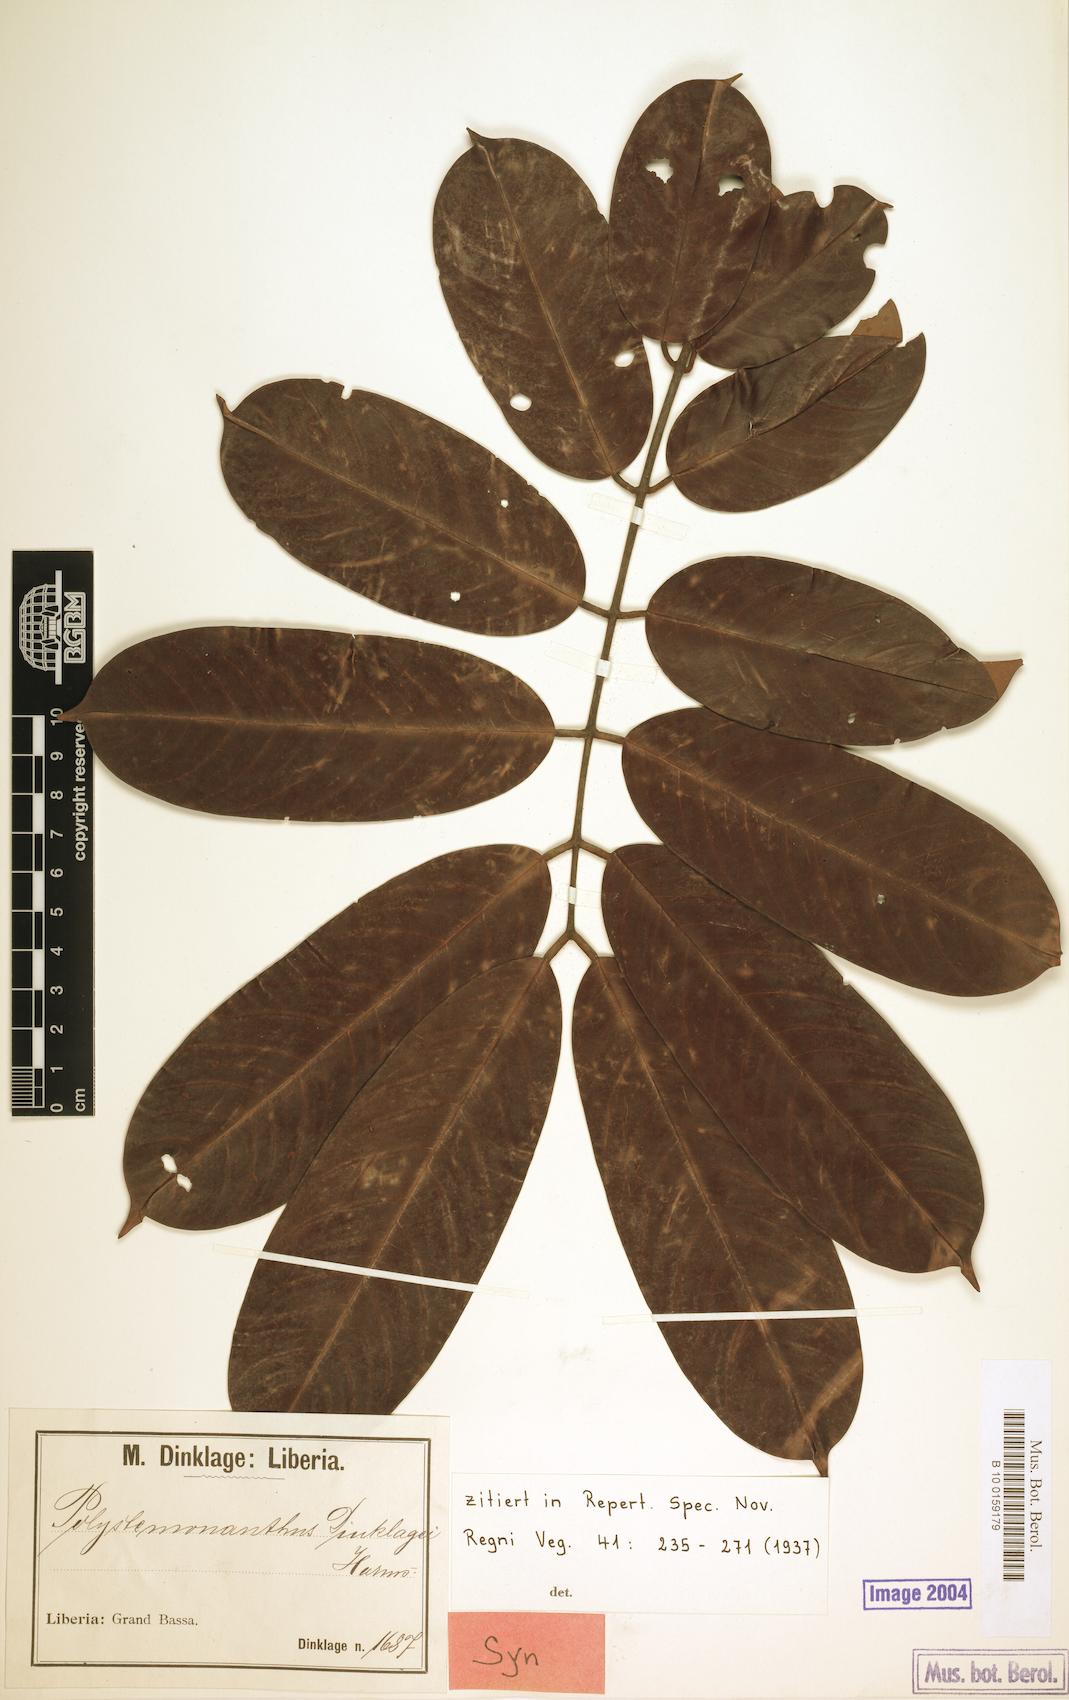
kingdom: Plantae
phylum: Tracheophyta
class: Magnoliopsida
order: Fabales
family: Fabaceae
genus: Polystemonanthus
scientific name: Polystemonanthus dinklagei
